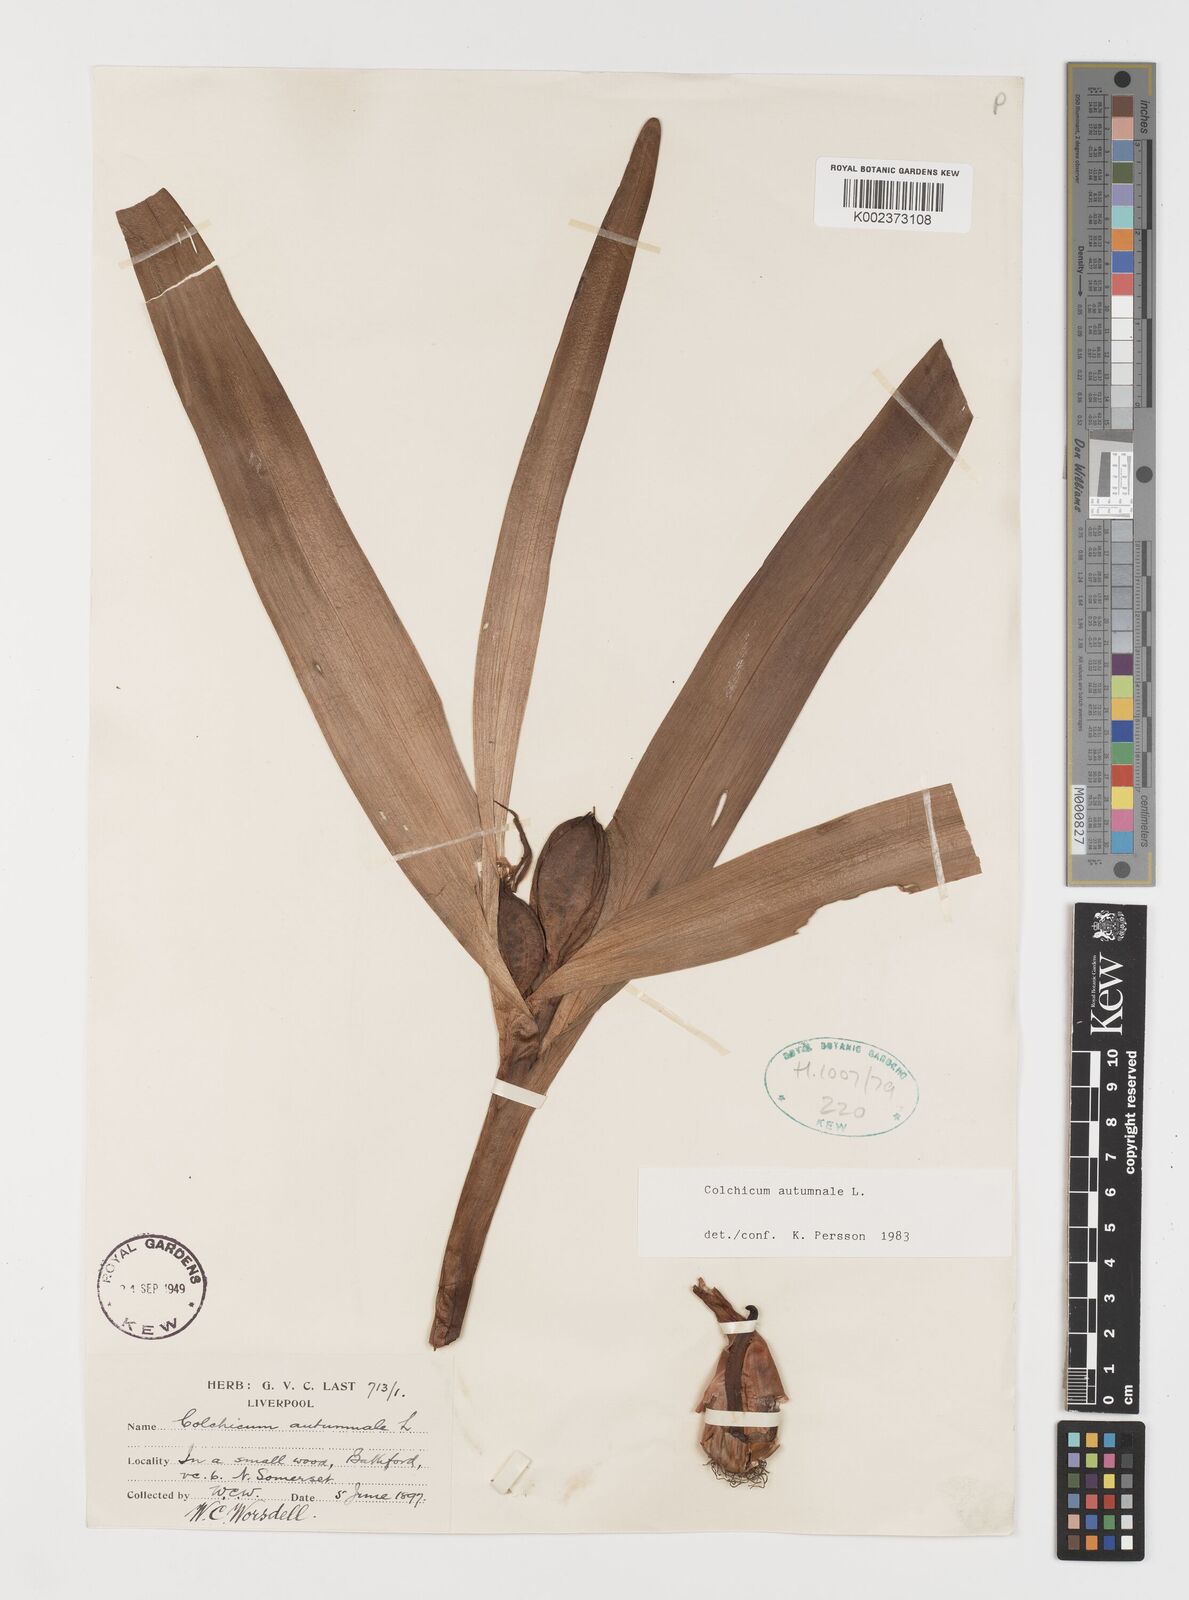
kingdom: Plantae
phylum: Tracheophyta
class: Liliopsida
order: Liliales
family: Colchicaceae
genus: Colchicum
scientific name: Colchicum autumnale
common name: Autumn crocus
